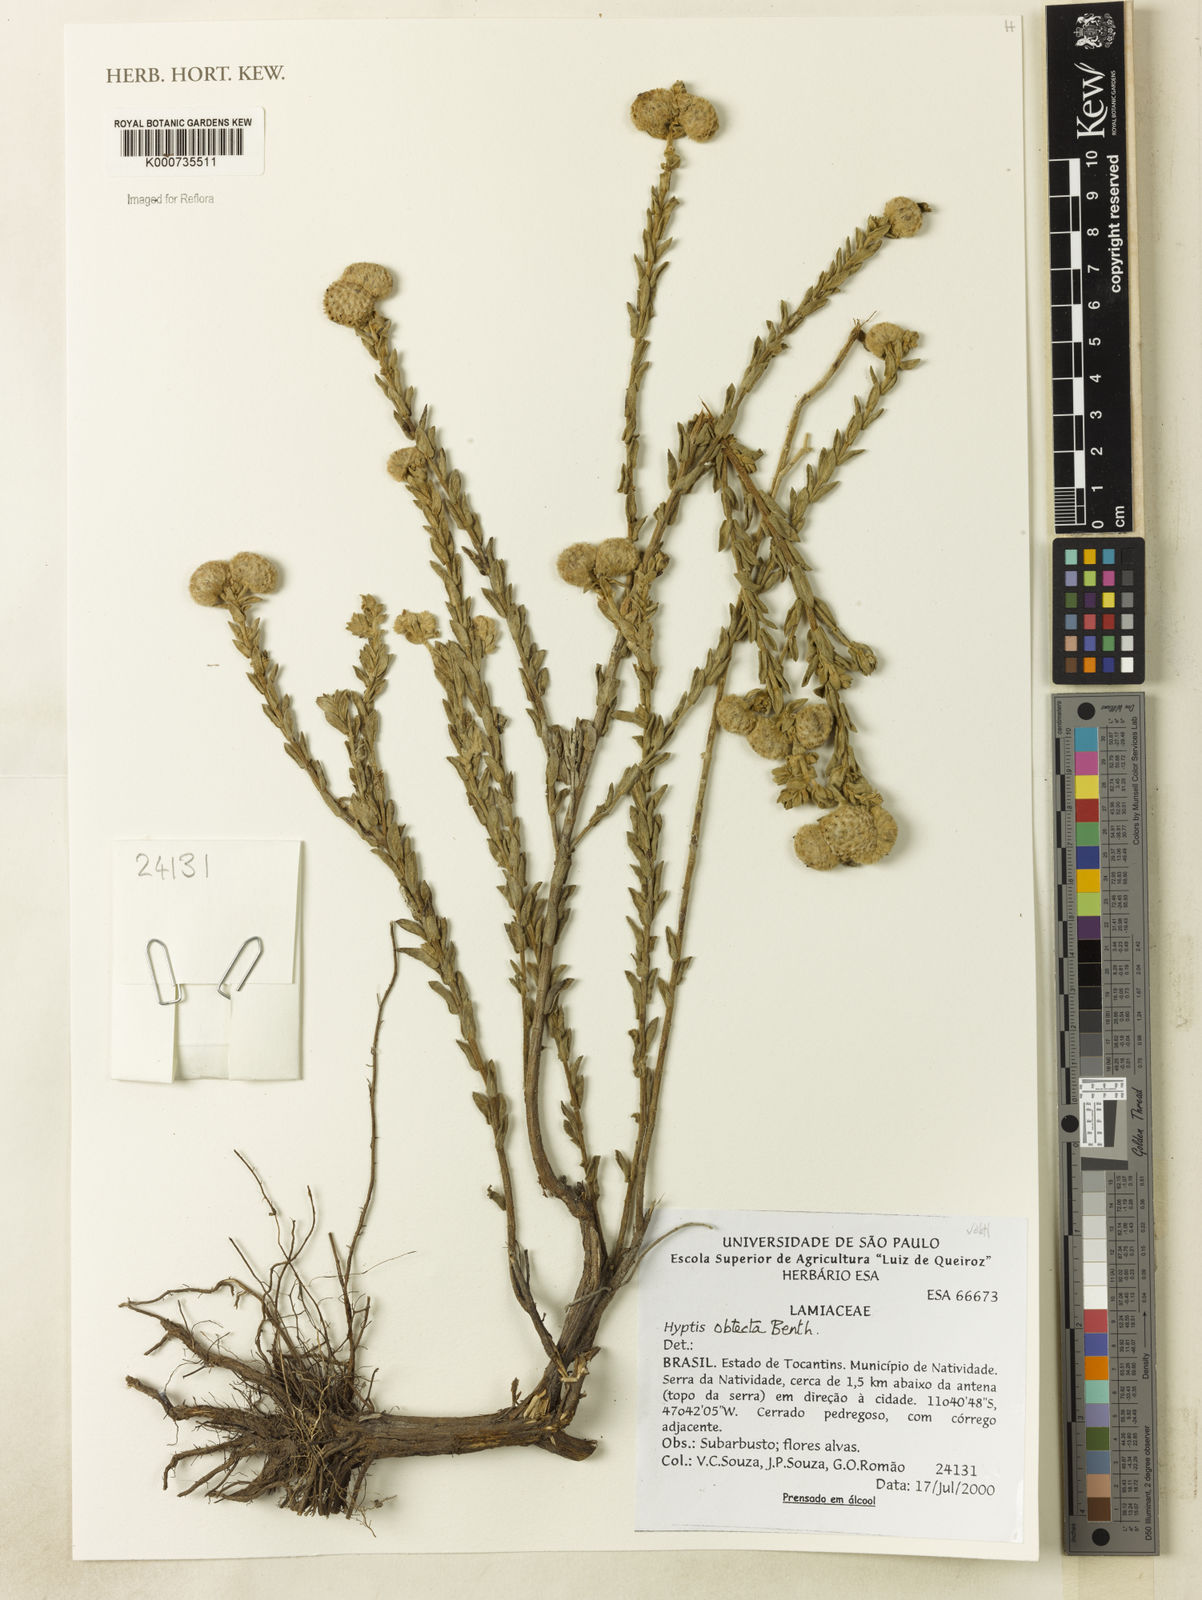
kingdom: Plantae
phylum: Tracheophyta
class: Magnoliopsida
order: Lamiales
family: Lamiaceae
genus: Hyptis
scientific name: Hyptis obtecta
